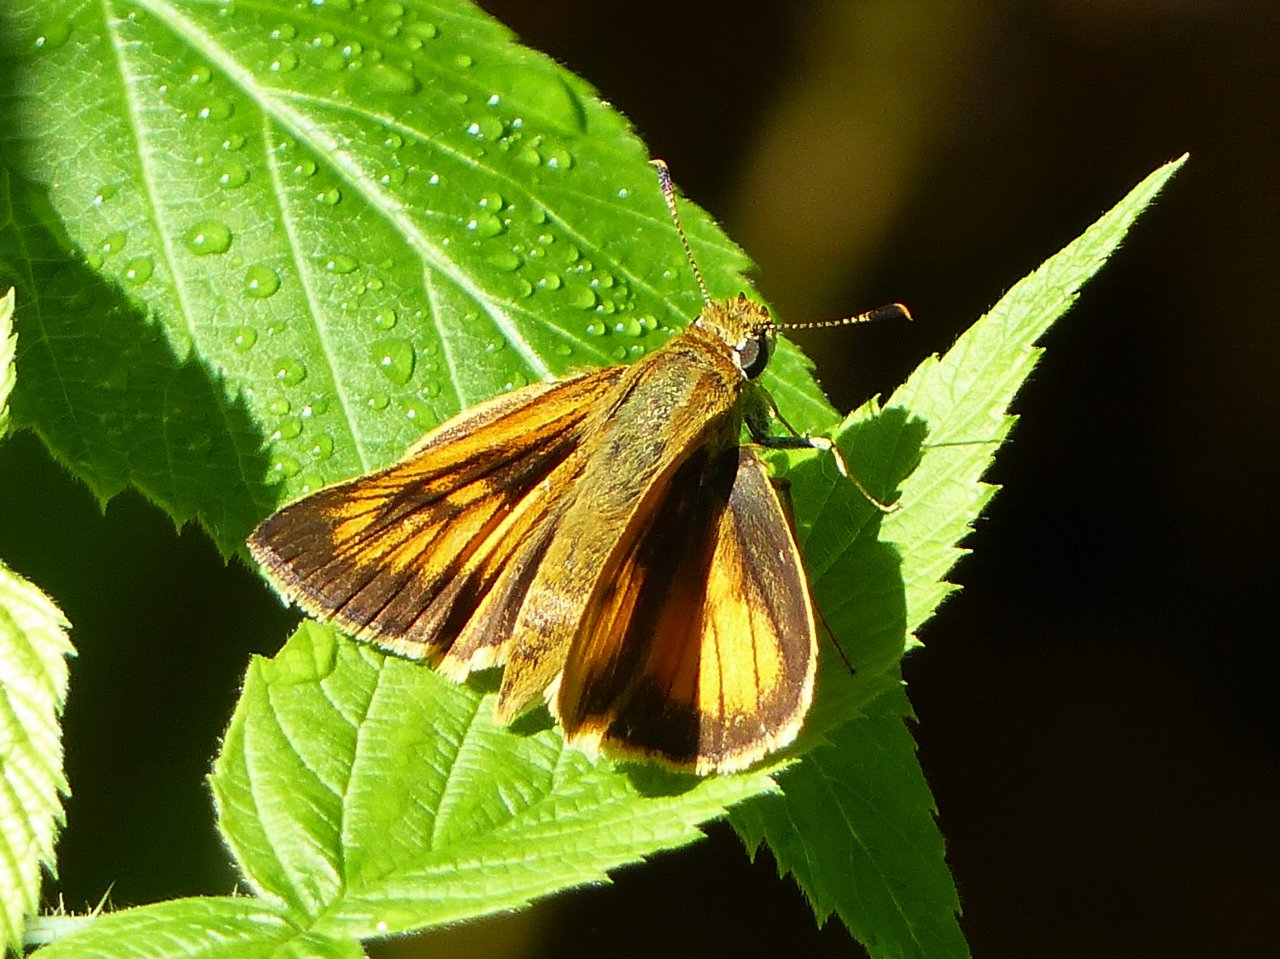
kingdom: Animalia
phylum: Arthropoda
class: Insecta
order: Lepidoptera
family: Hesperiidae
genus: Atrytone
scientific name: Atrytone delaware
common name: Delaware Skipper
